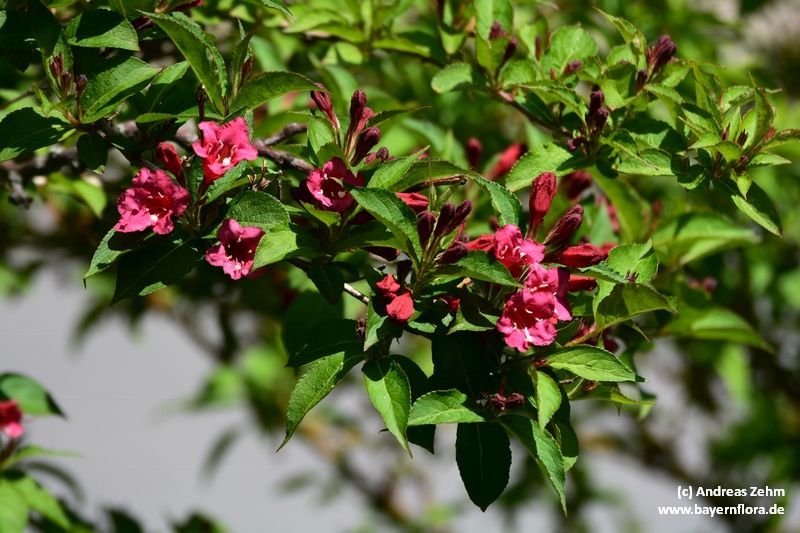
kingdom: Plantae
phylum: Tracheophyta
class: Magnoliopsida
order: Dipsacales
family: Caprifoliaceae
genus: Weigela
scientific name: Weigela florida
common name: Weigelia
